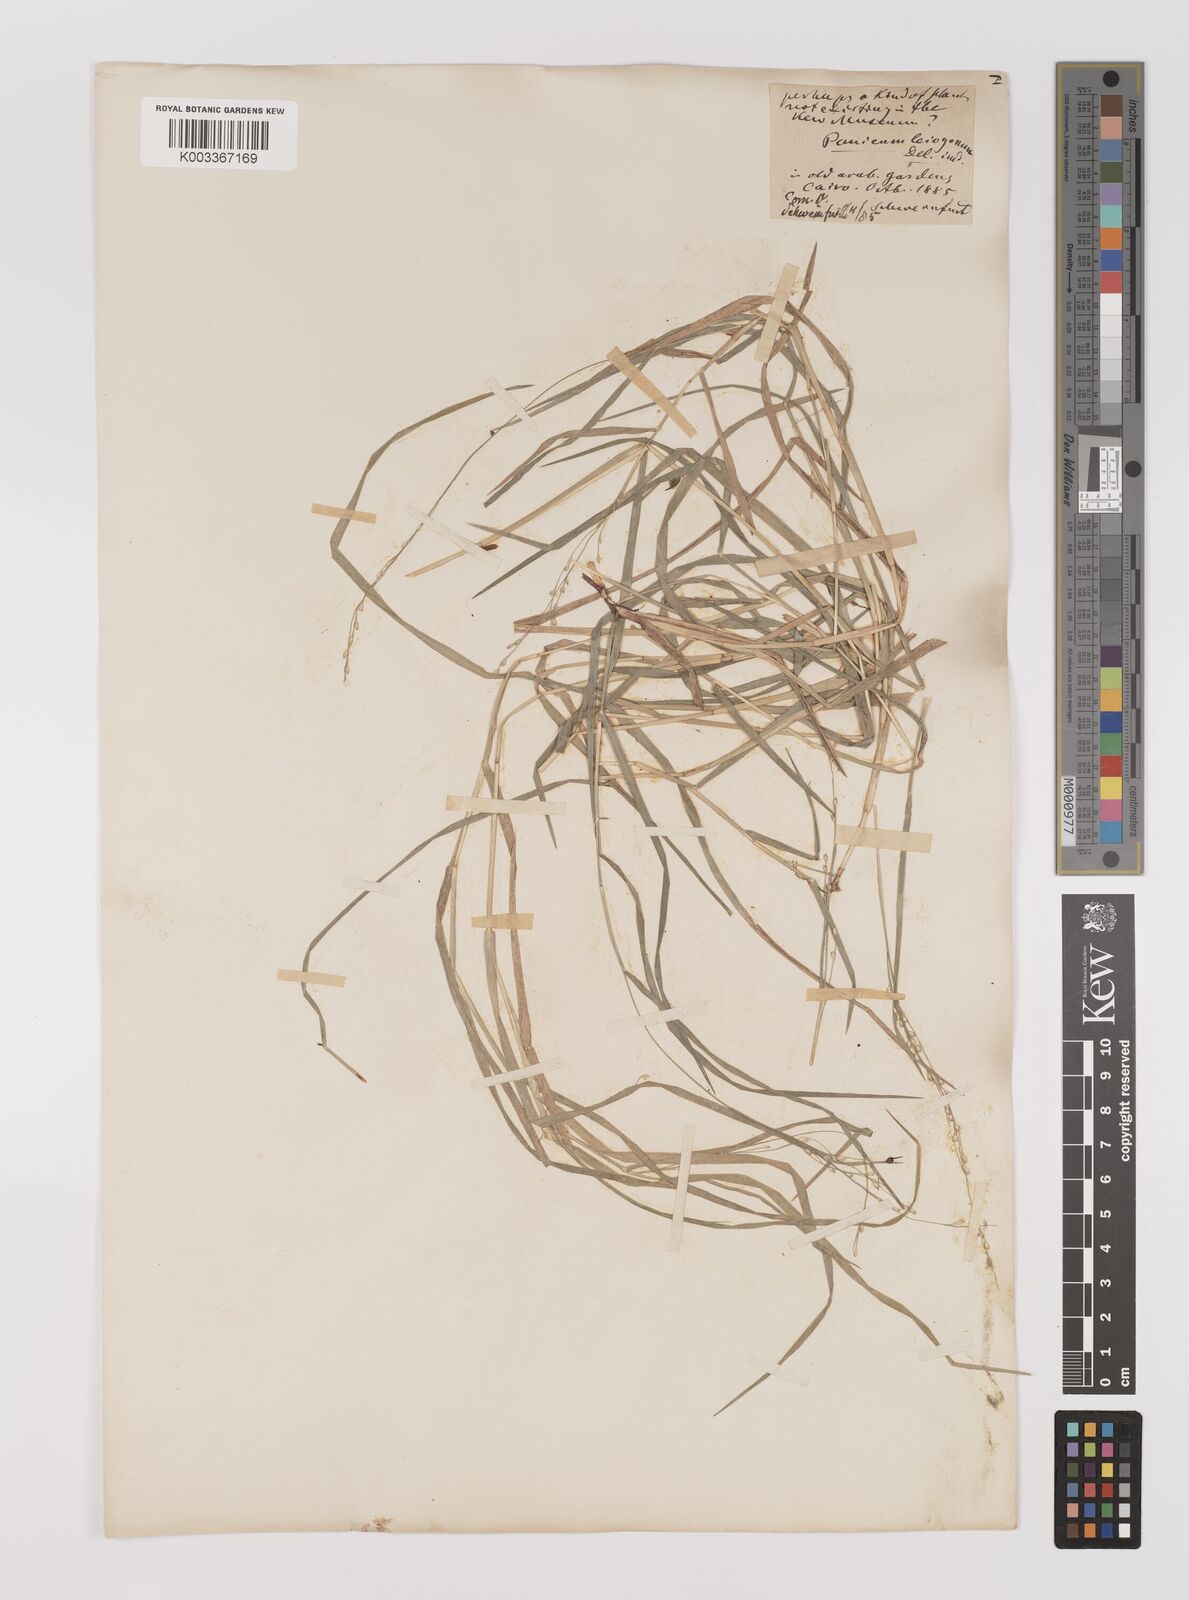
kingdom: Plantae
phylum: Tracheophyta
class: Liliopsida
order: Poales
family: Poaceae
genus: Panicum
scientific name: Panicum repens
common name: Torpedo grass
